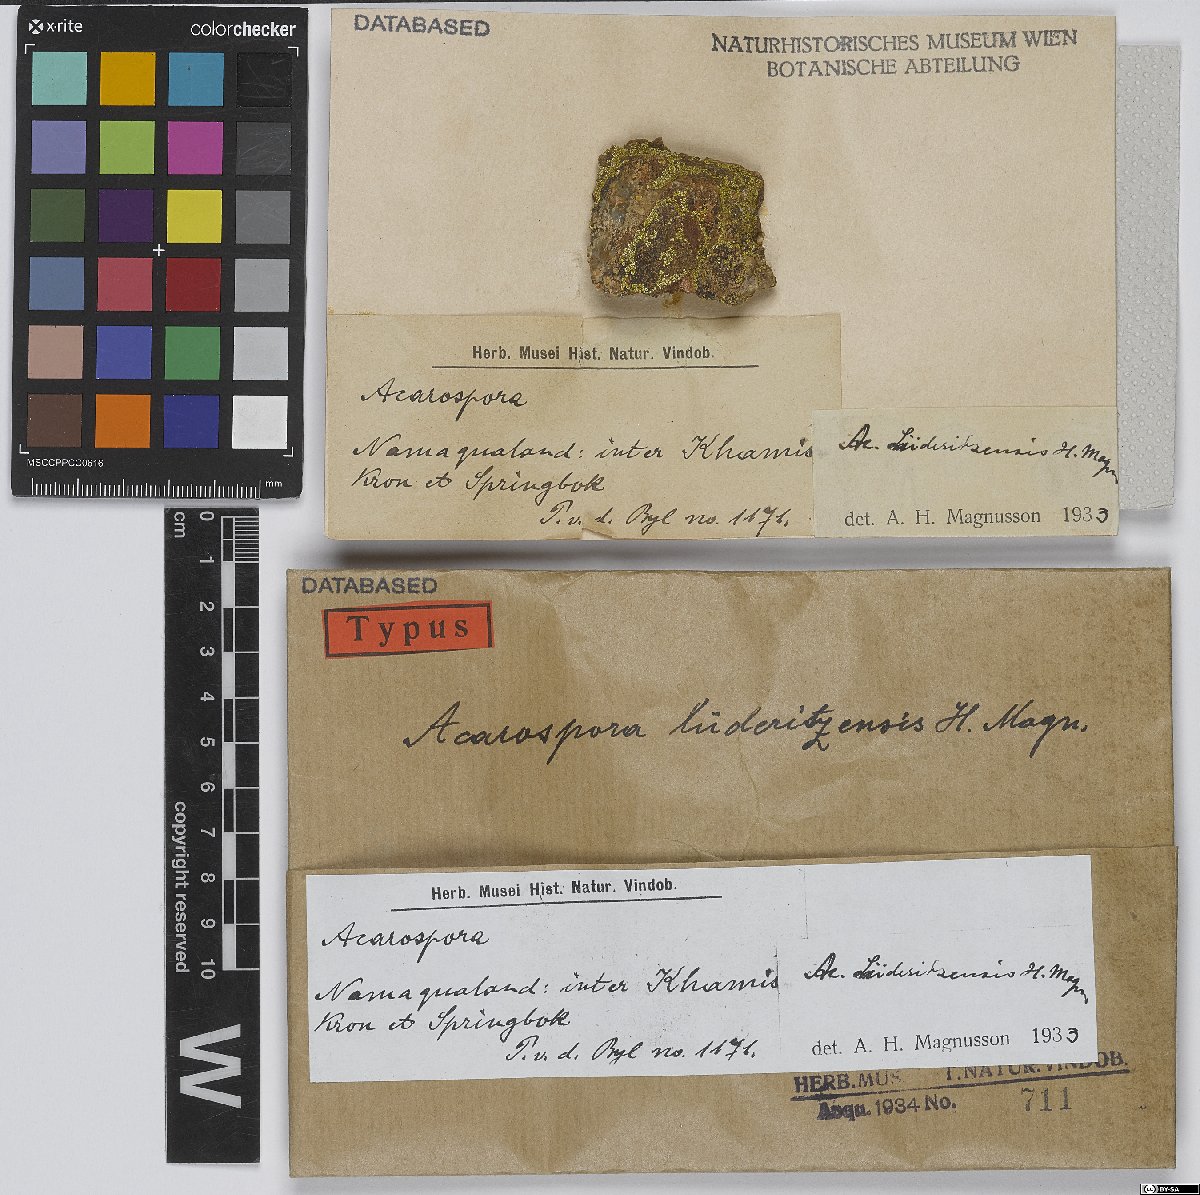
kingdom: Fungi
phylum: Ascomycota
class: Lecanoromycetes
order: Acarosporales
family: Acarosporaceae
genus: Acarospora
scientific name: Acarospora luederitzensis
